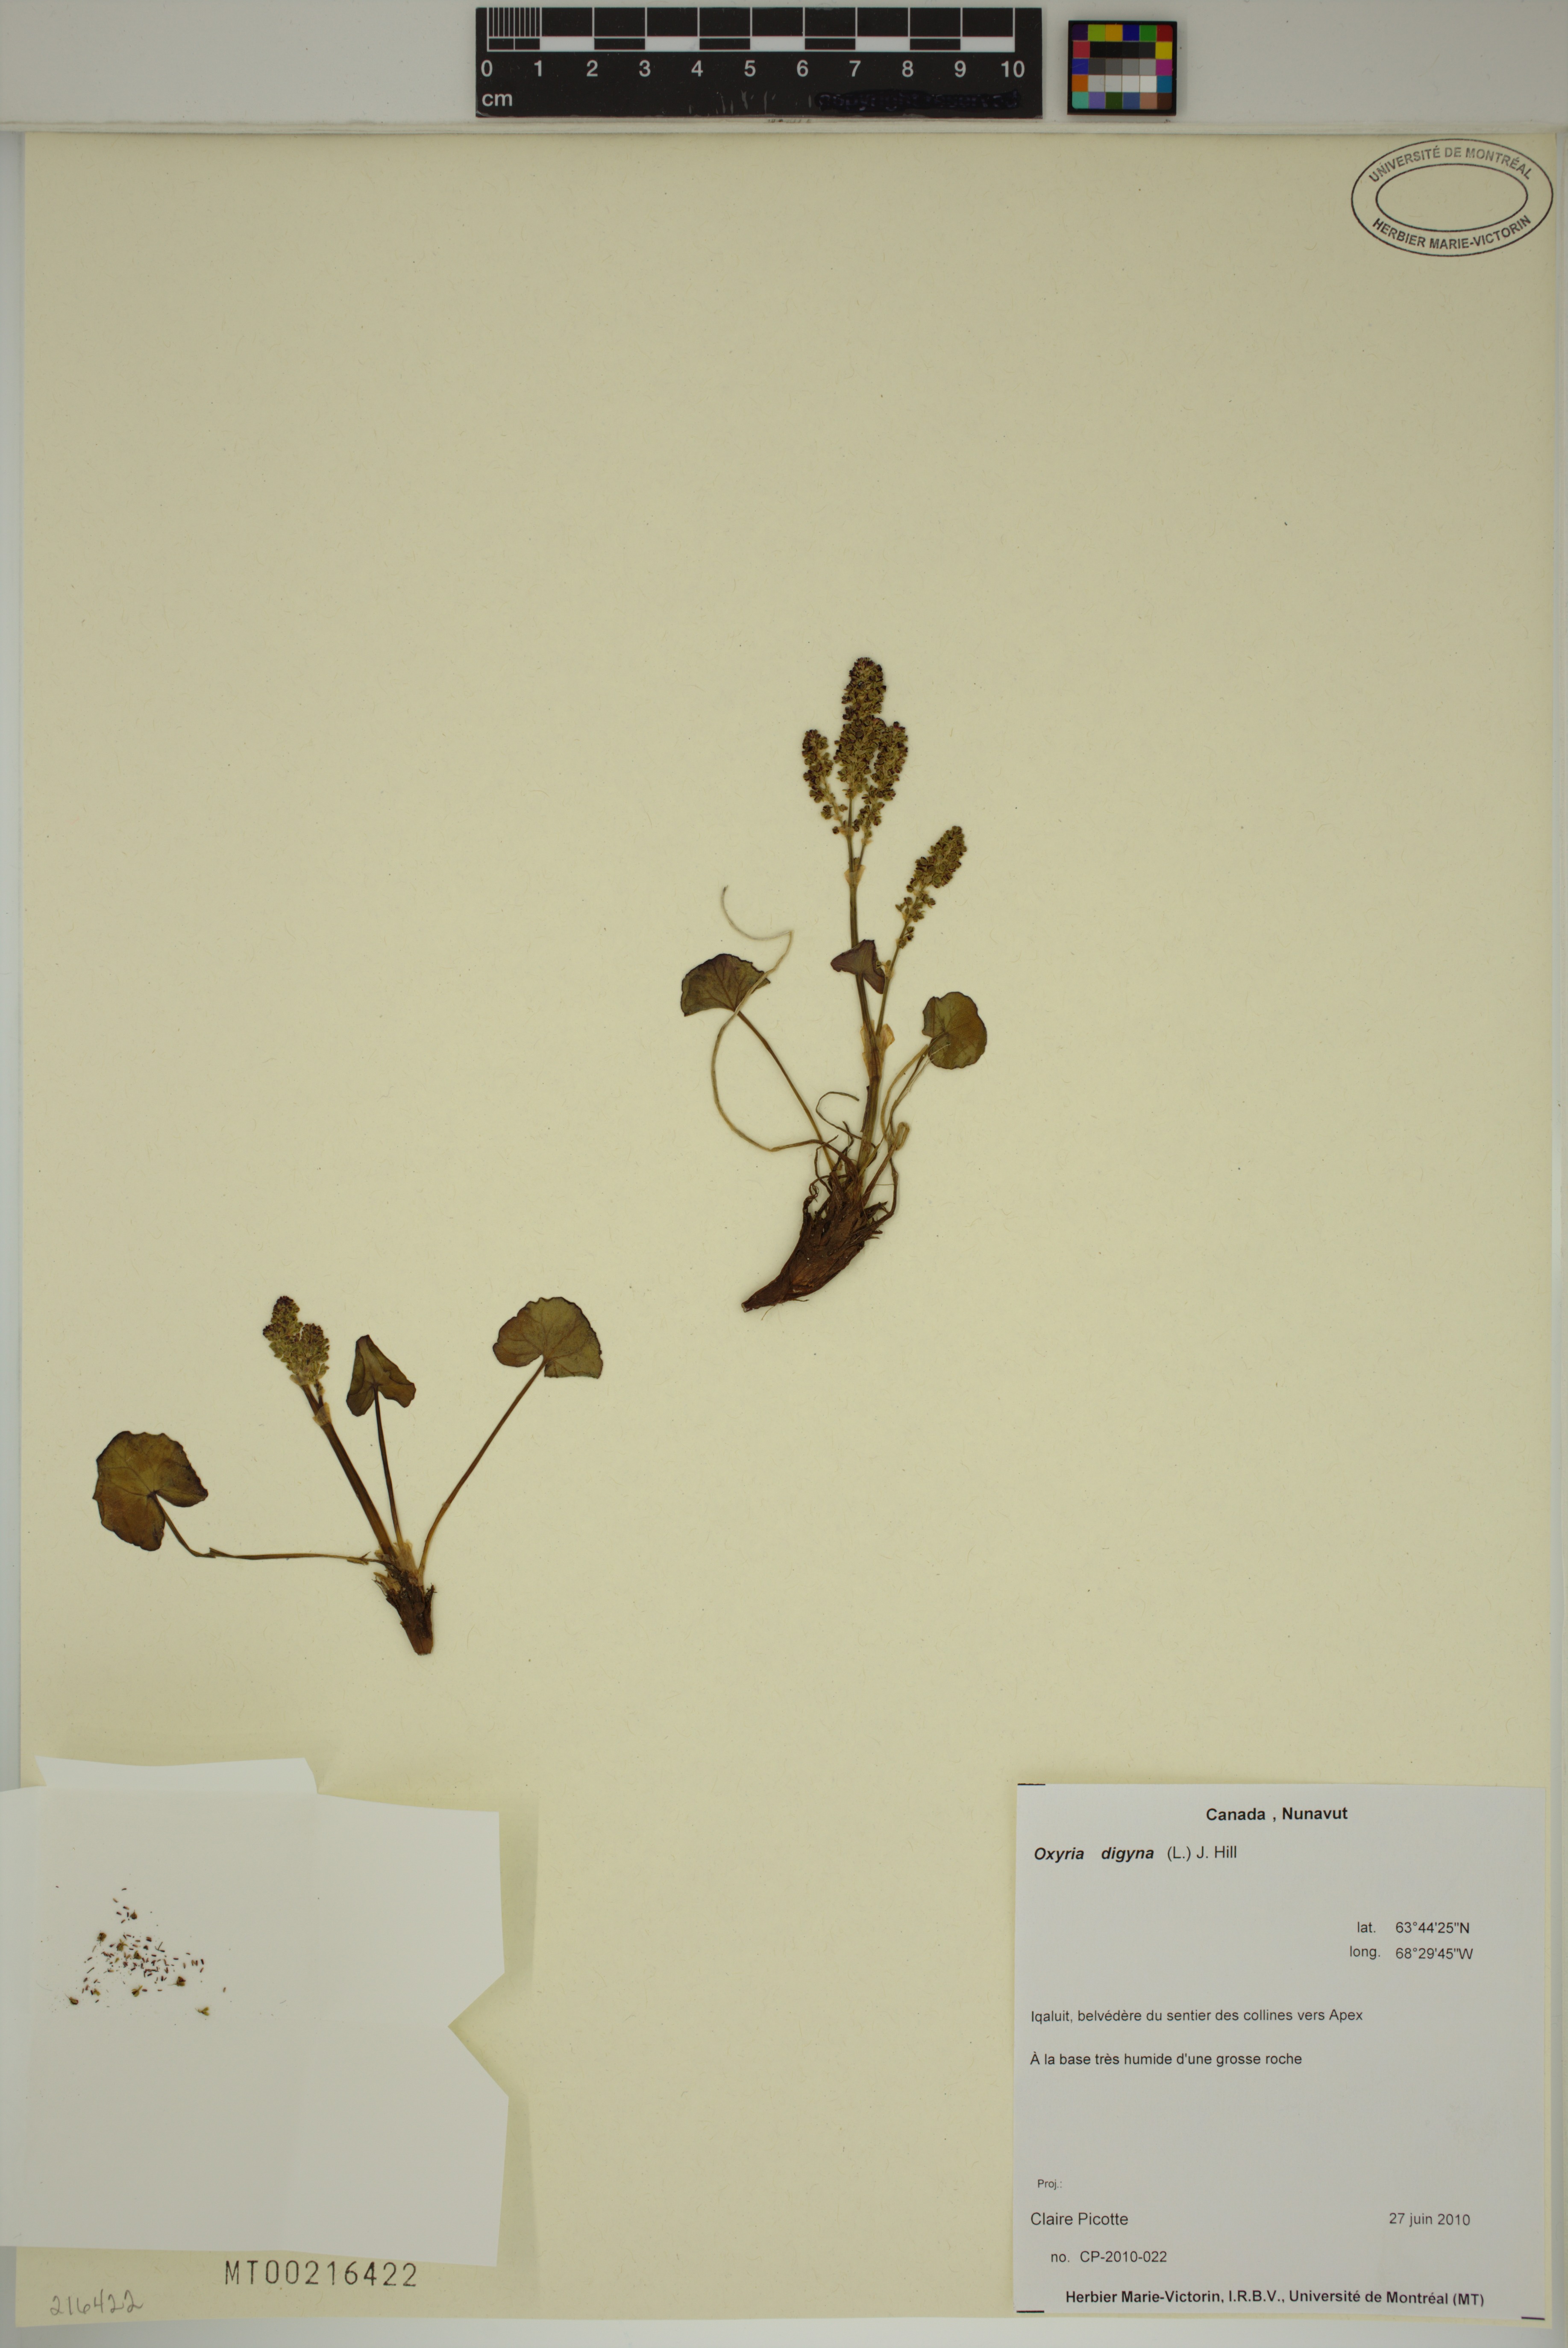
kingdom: Plantae
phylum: Tracheophyta
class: Magnoliopsida
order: Caryophyllales
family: Polygonaceae
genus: Oxyria
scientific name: Oxyria digyna
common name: Alpine mountain-sorrel
